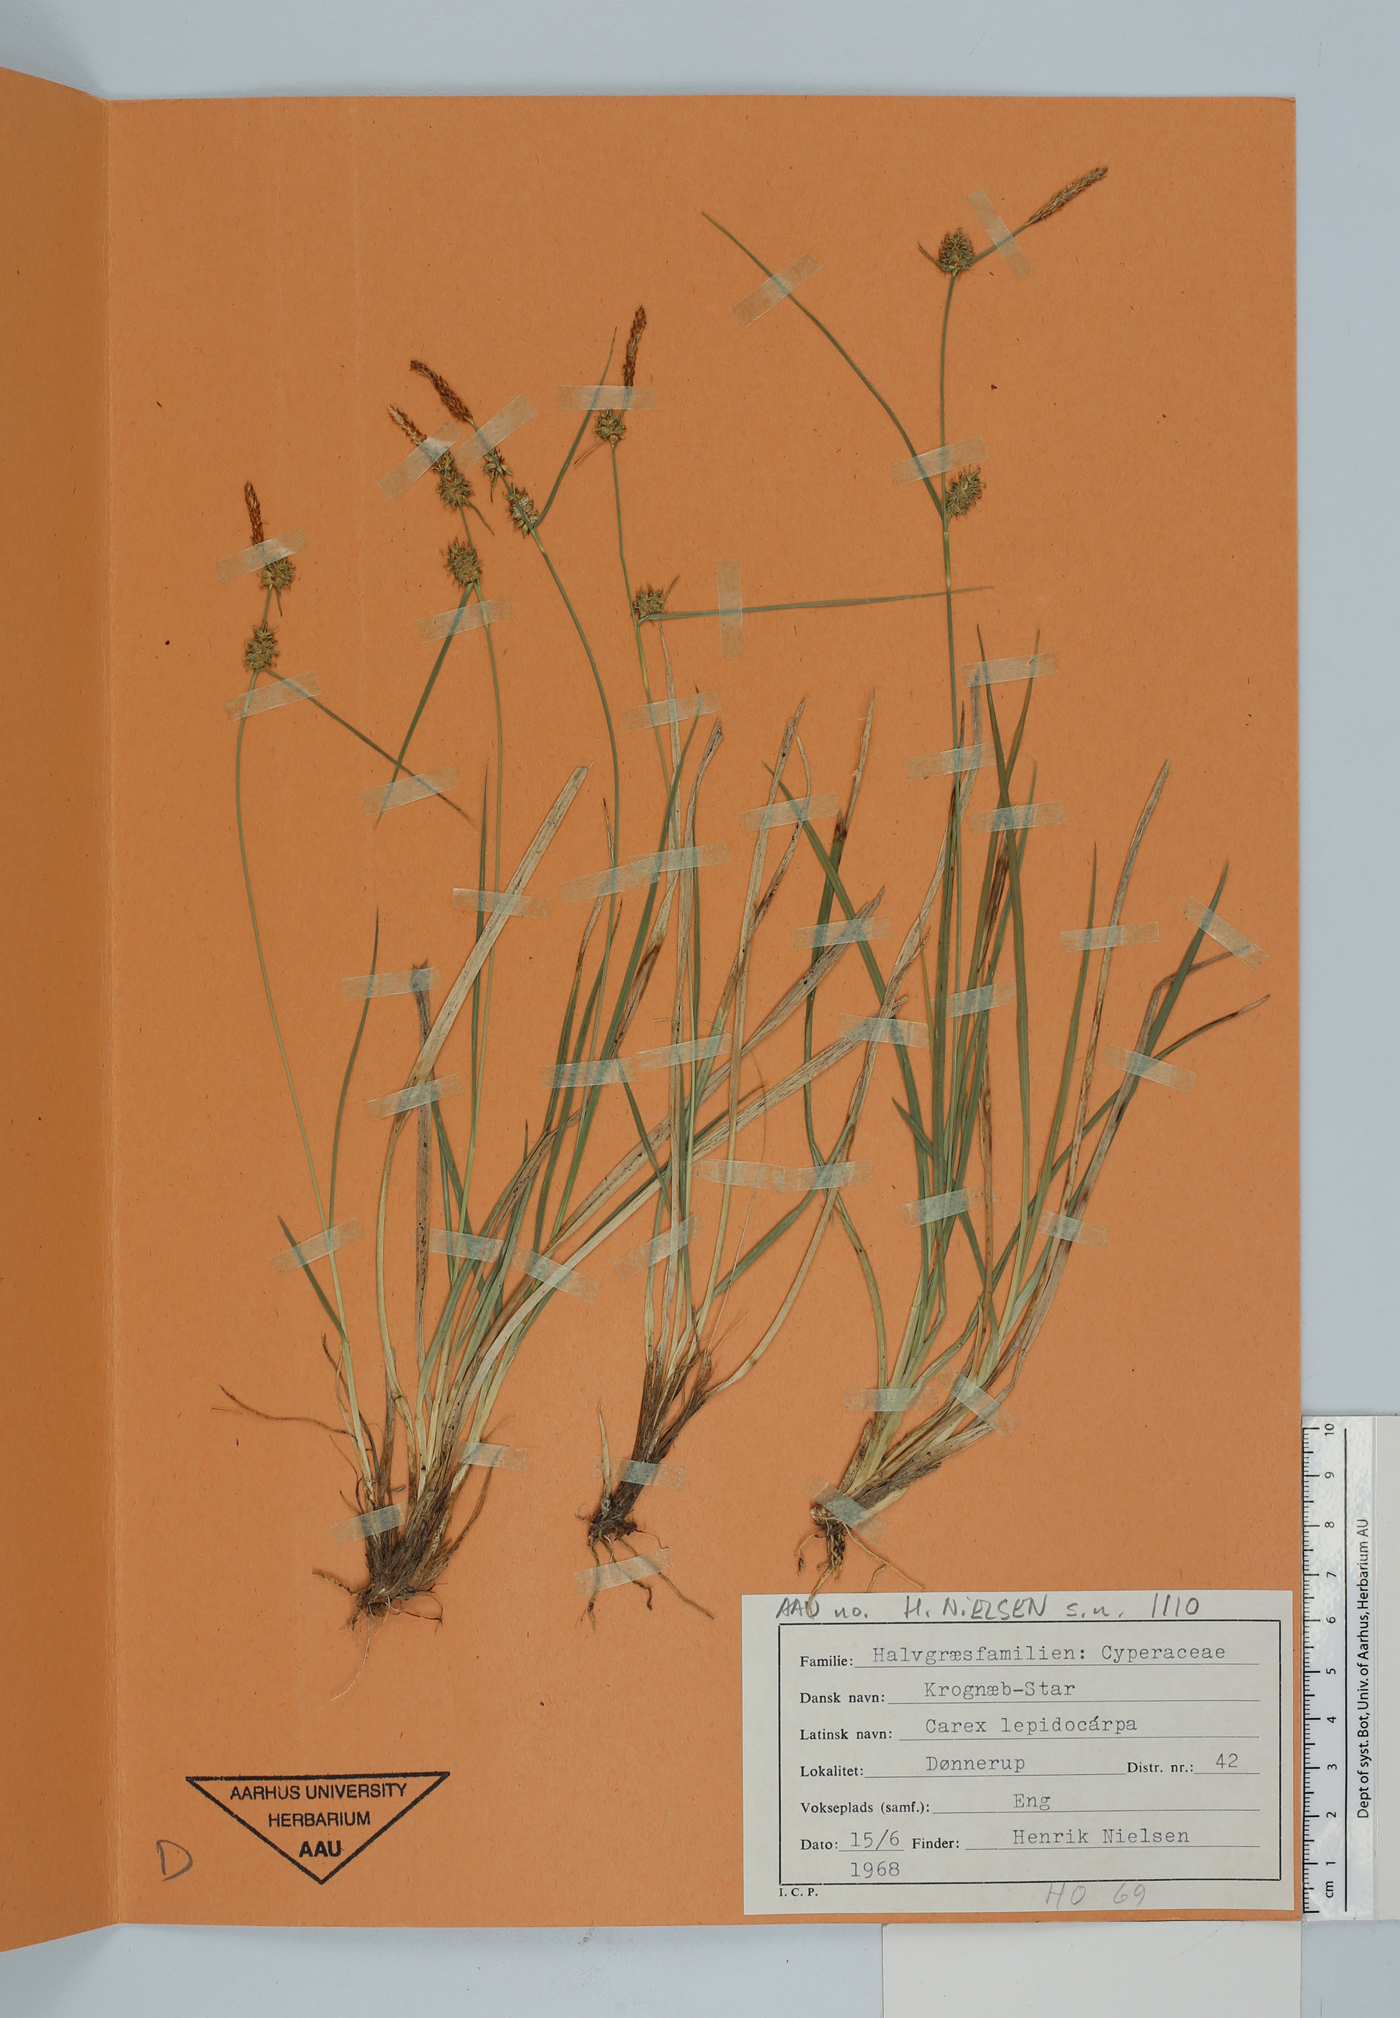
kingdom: Plantae
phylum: Tracheophyta
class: Liliopsida
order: Poales
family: Cyperaceae
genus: Carex
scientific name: Carex lepidocarpa
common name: Long-stalked yellow-sedge
